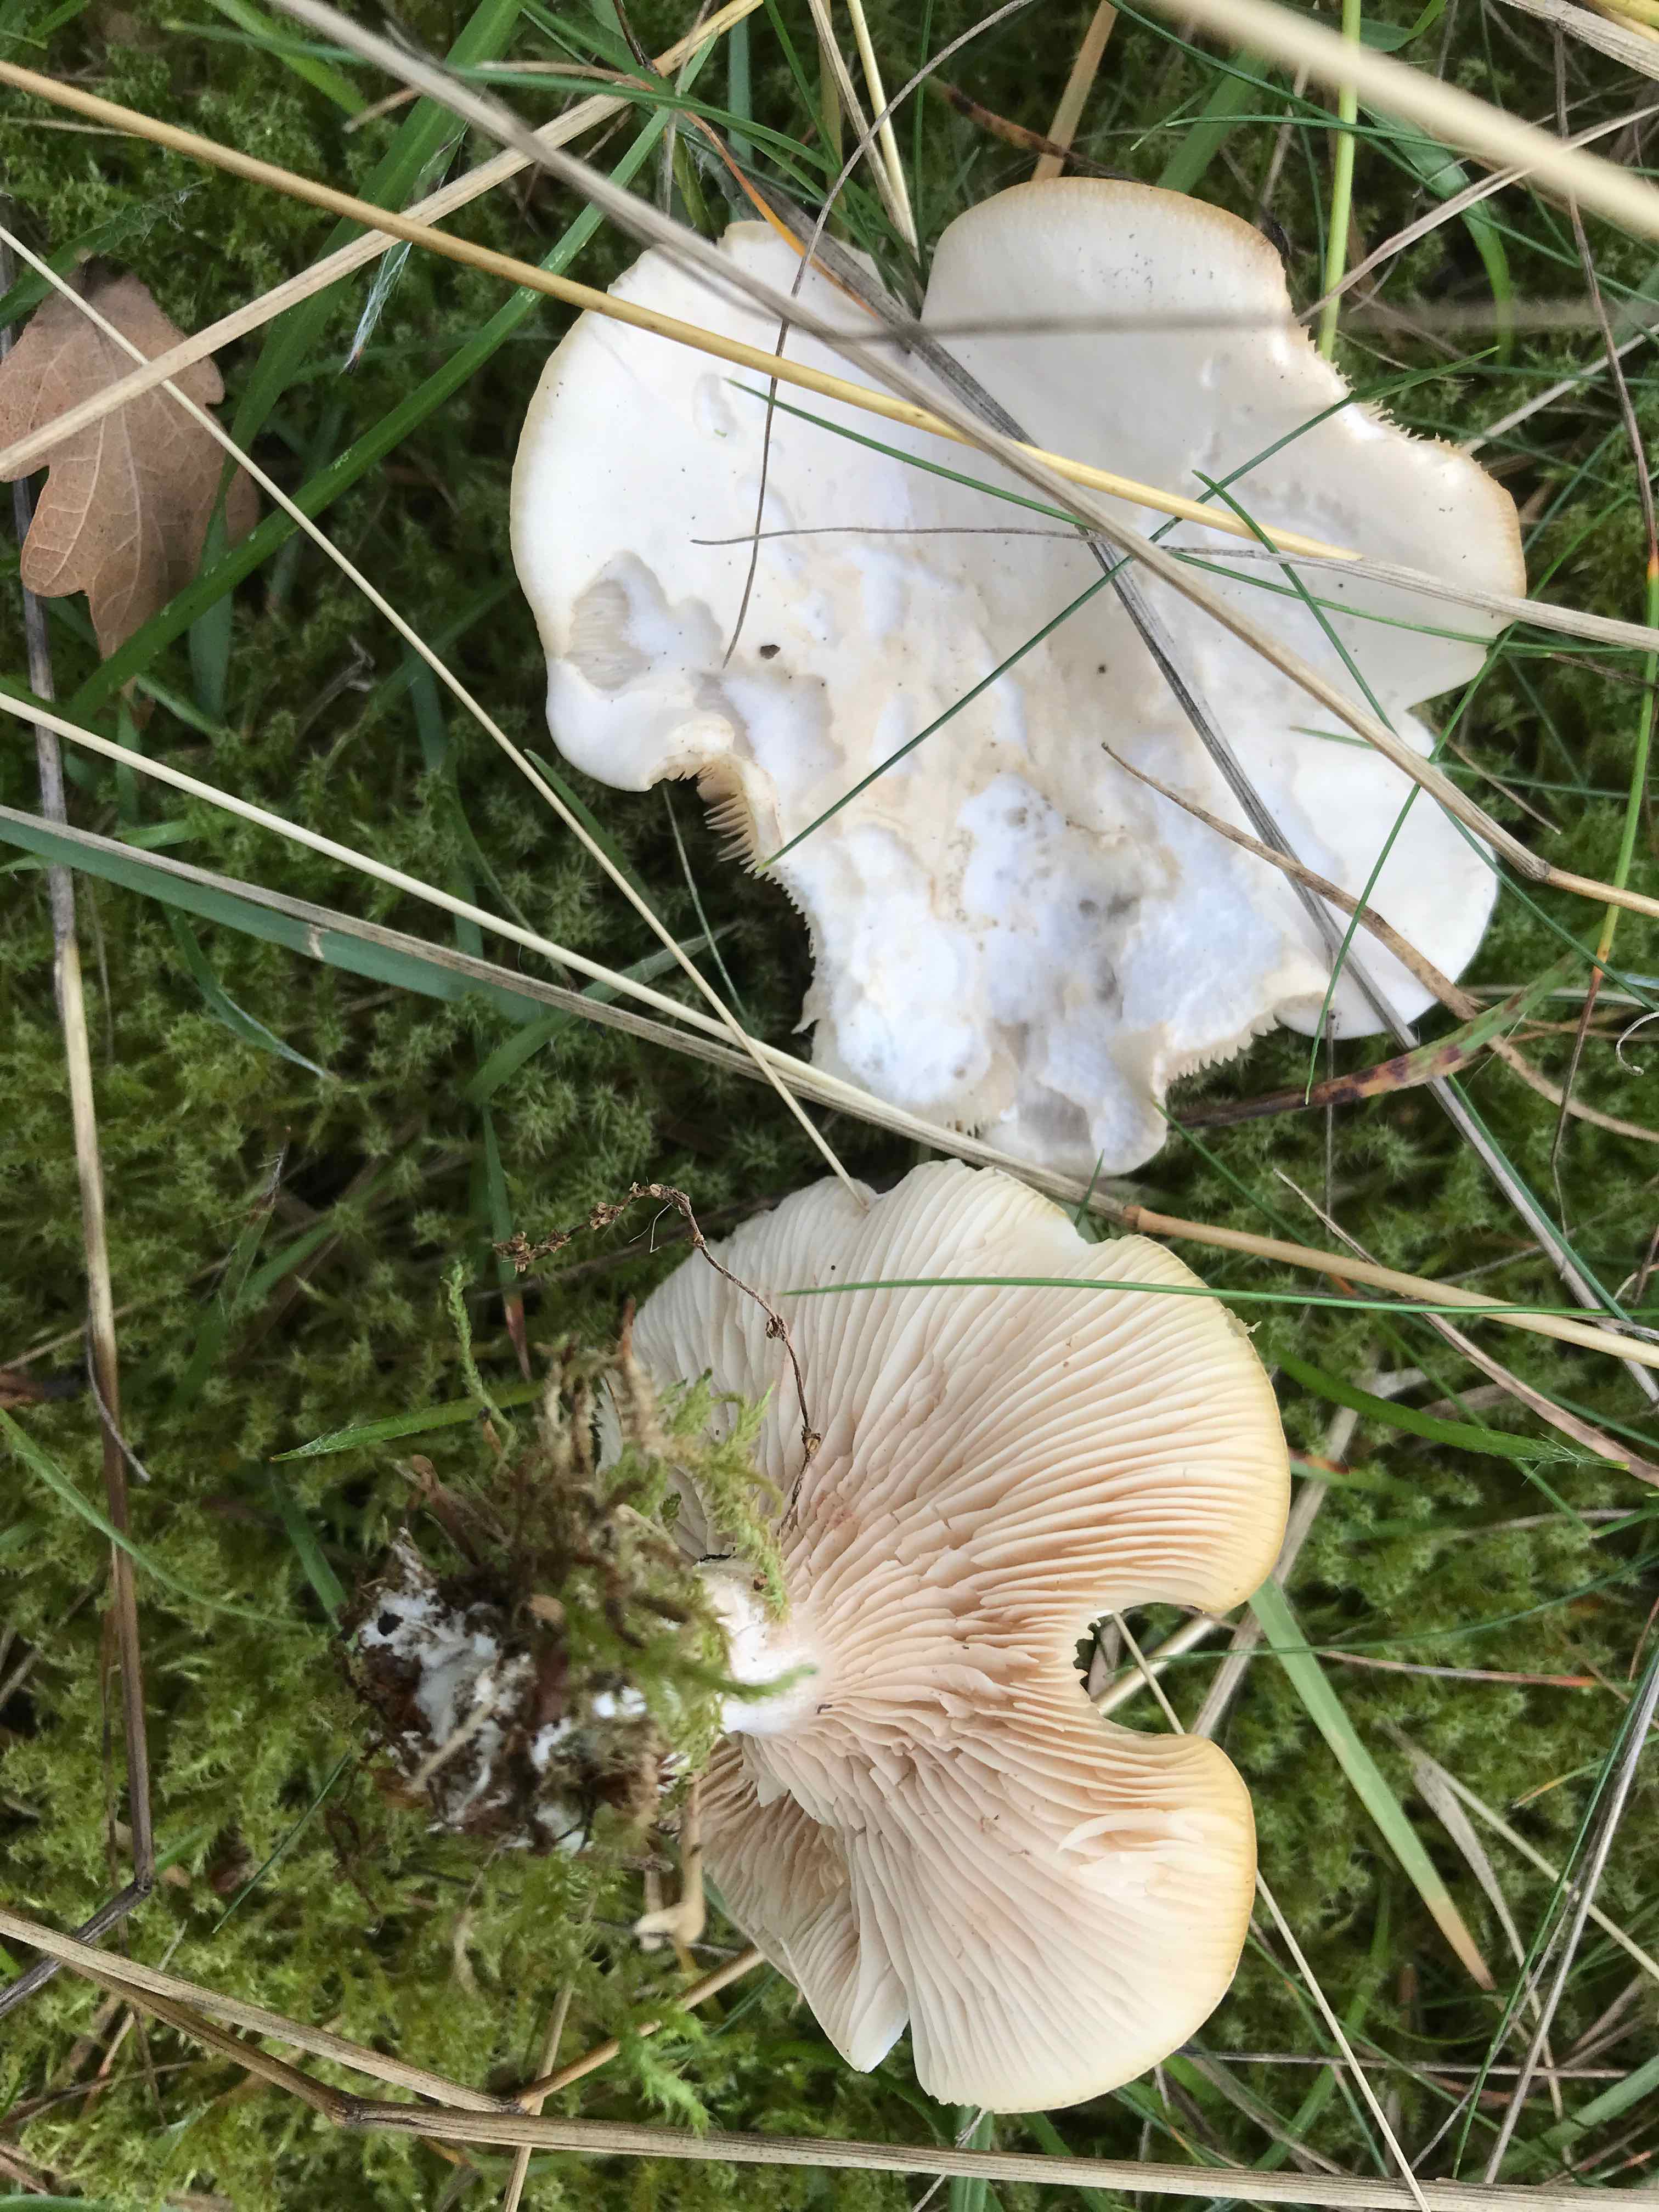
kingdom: Fungi
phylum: Basidiomycota
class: Agaricomycetes
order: Agaricales
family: Entolomataceae
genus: Clitopilus
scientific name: Clitopilus prunulus
